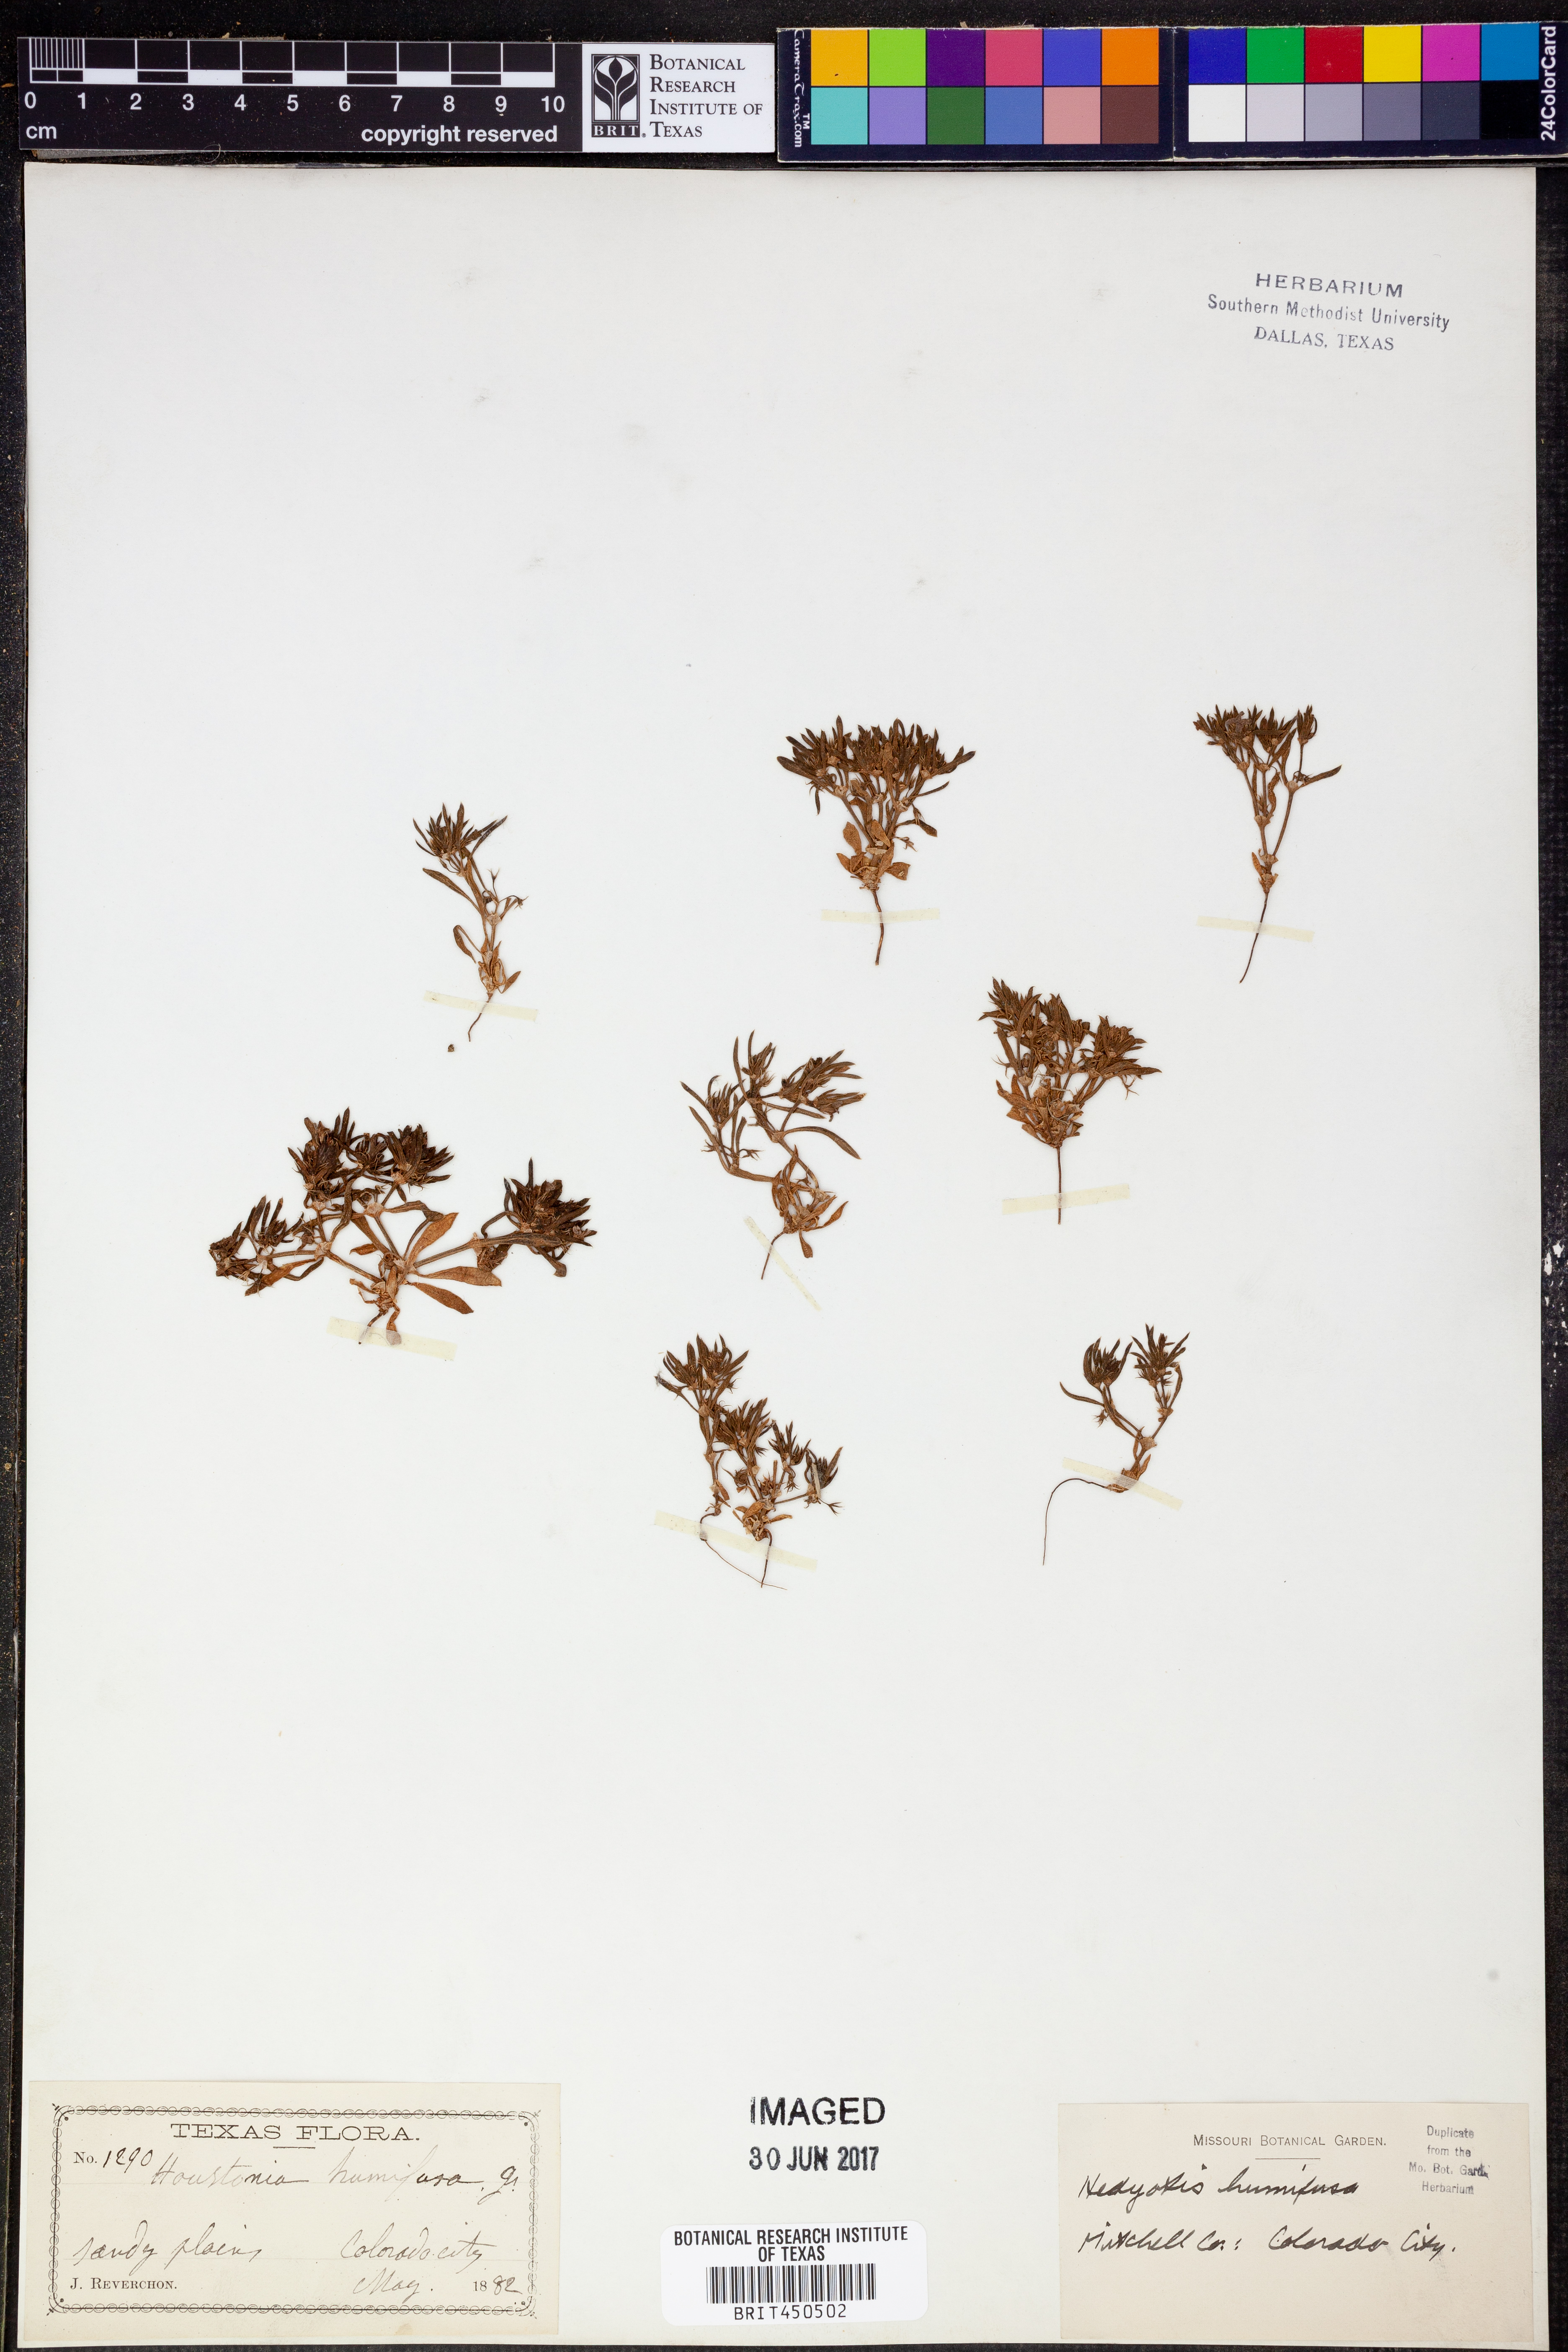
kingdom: Plantae
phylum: Tracheophyta
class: Magnoliopsida
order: Gentianales
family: Rubiaceae
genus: Houstonia
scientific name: Houstonia humifusa
